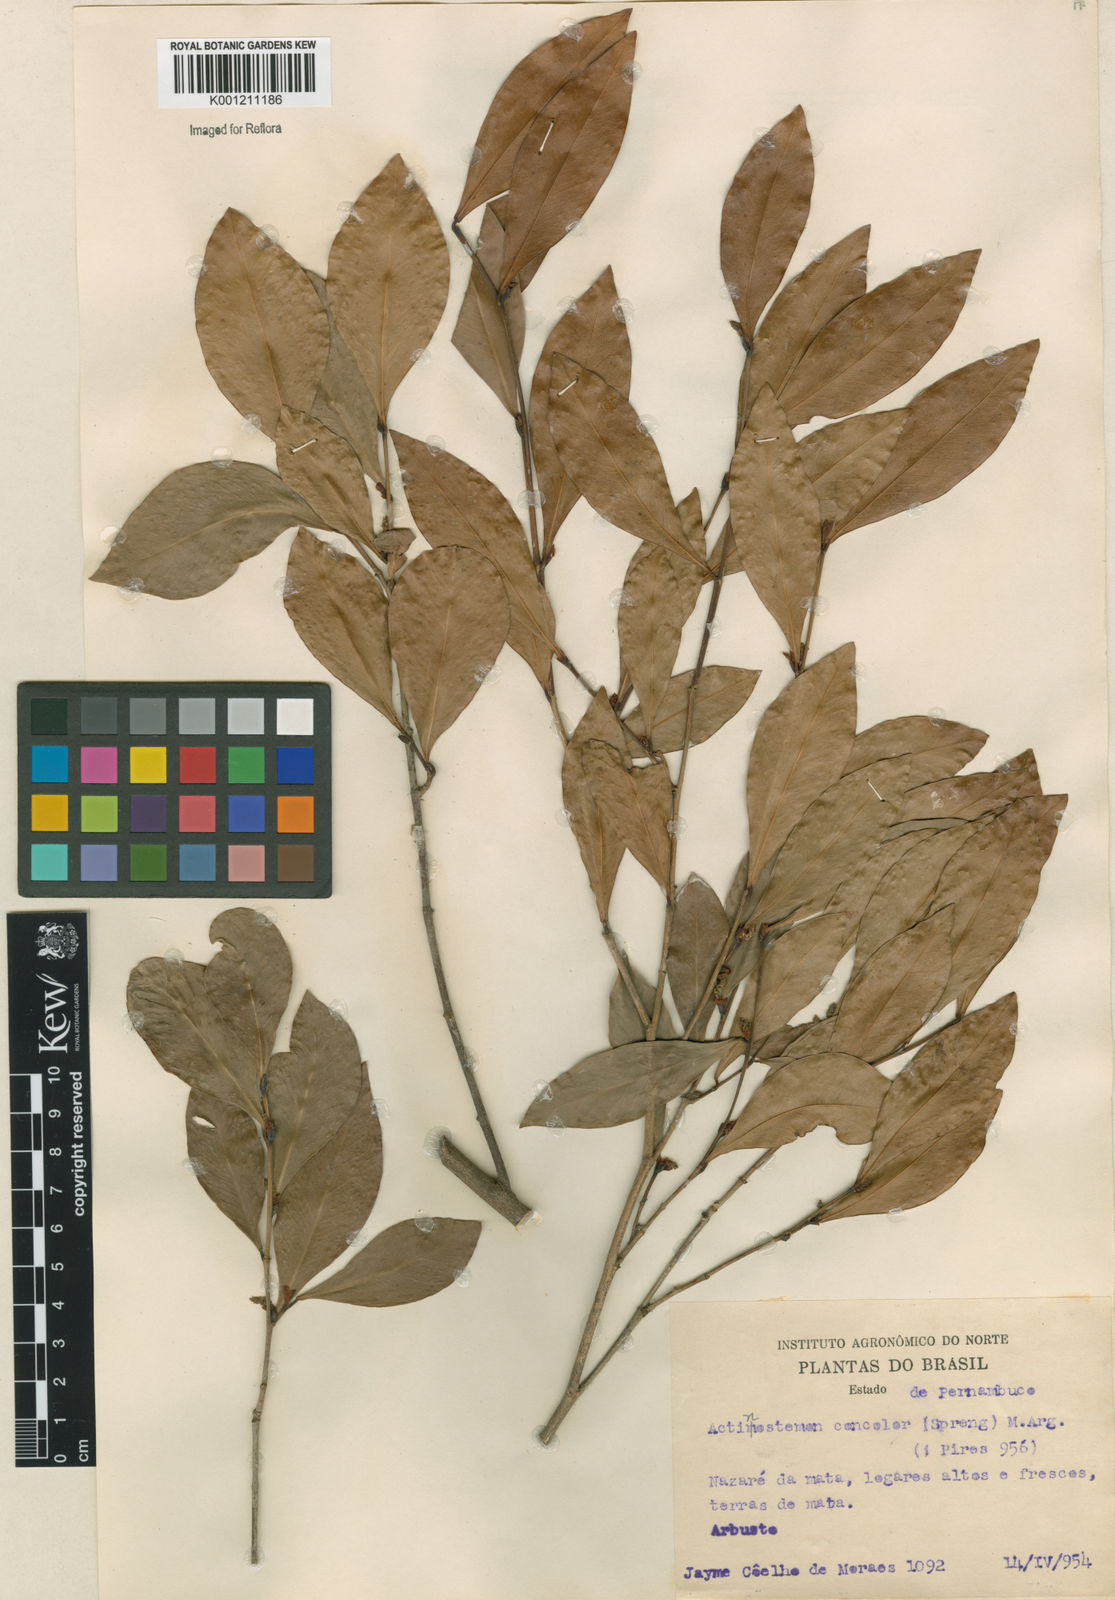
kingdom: Plantae
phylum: Tracheophyta
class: Magnoliopsida
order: Malpighiales
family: Euphorbiaceae
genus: Actinostemon
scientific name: Actinostemon
